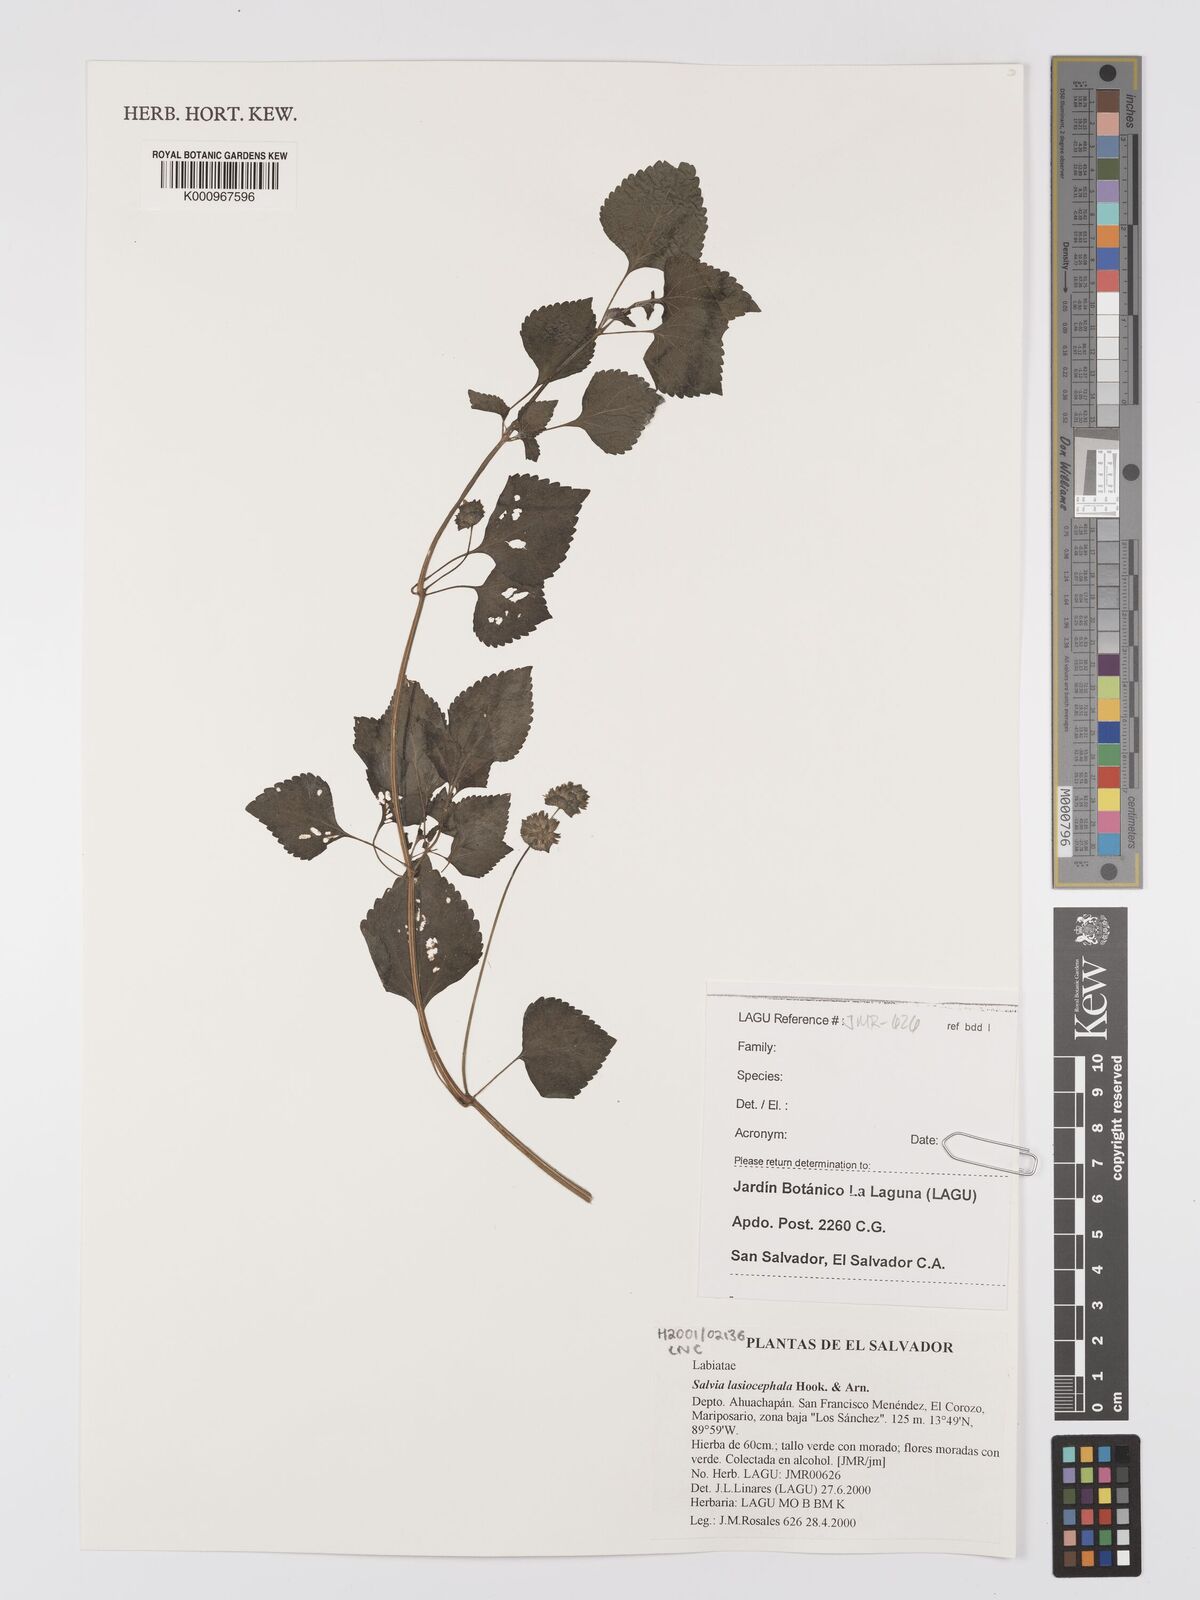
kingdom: Plantae
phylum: Tracheophyta
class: Magnoliopsida
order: Lamiales
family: Lamiaceae
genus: Salvia
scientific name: Salvia lasiocephala
